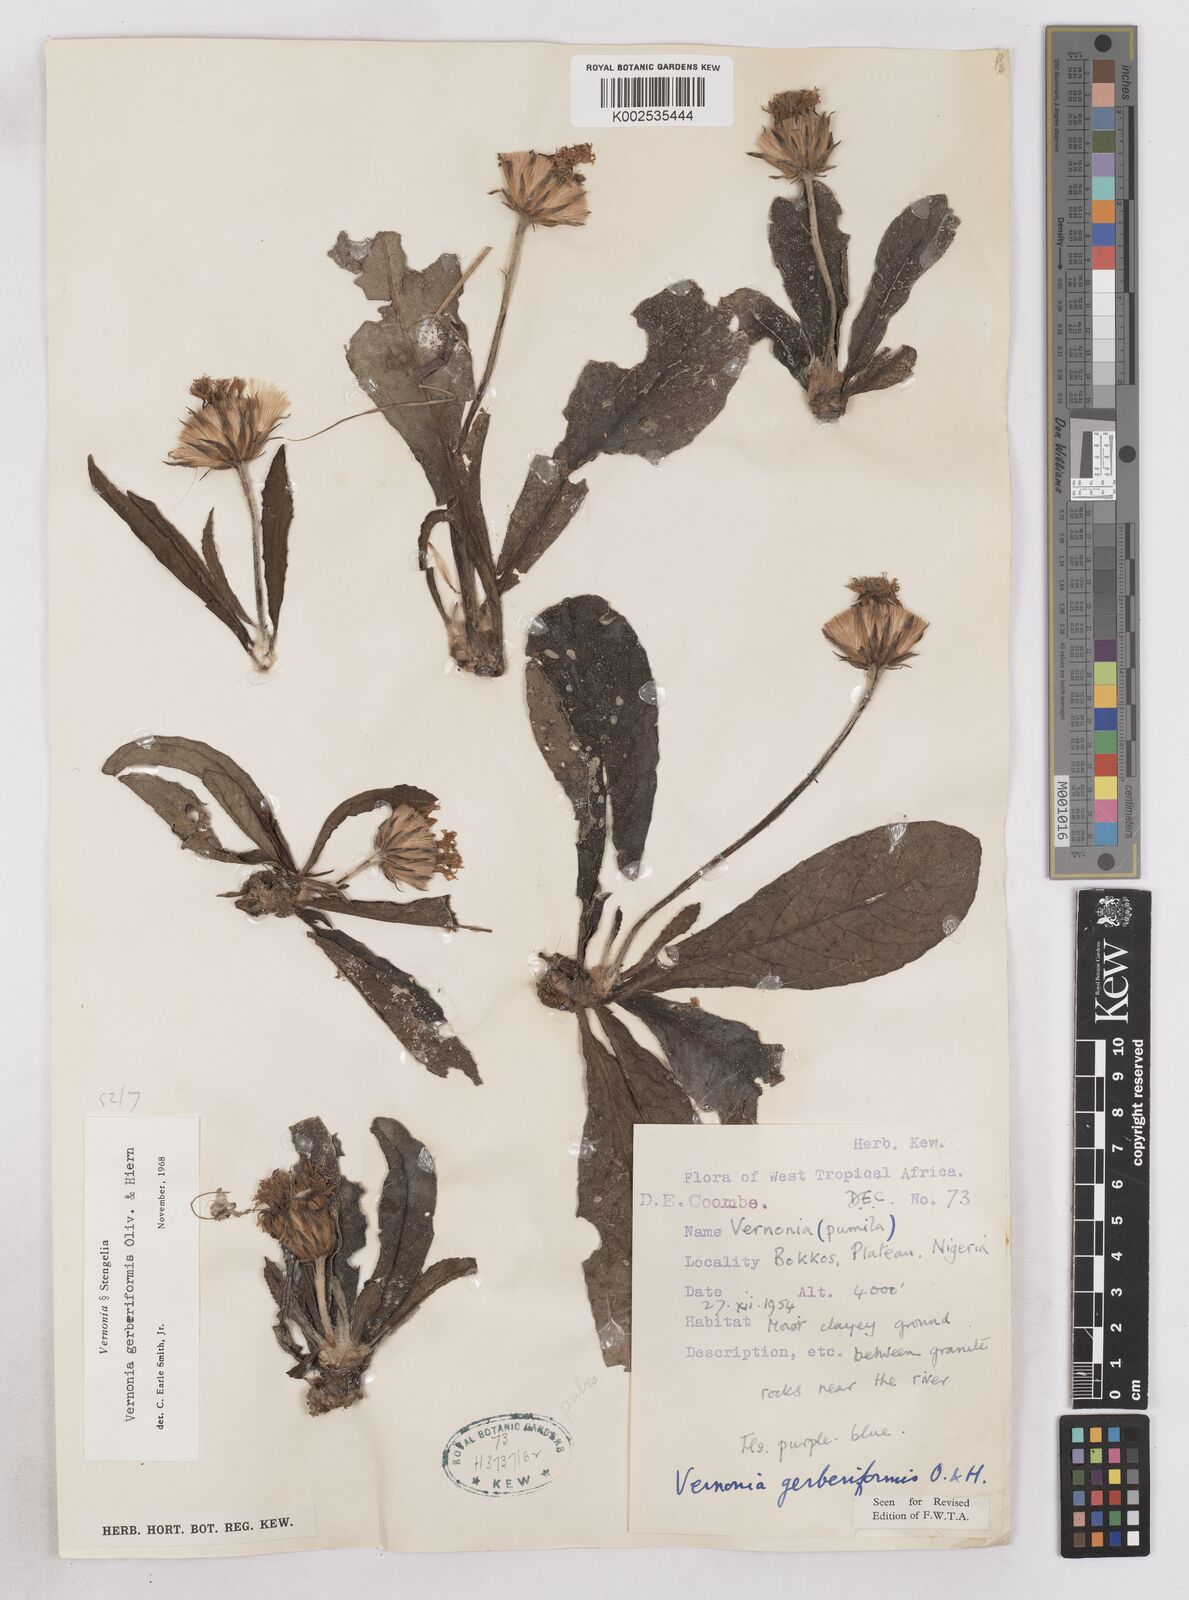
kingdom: Plantae
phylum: Tracheophyta
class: Magnoliopsida
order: Asterales
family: Asteraceae
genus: Linzia
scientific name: Linzia gerberiformis
